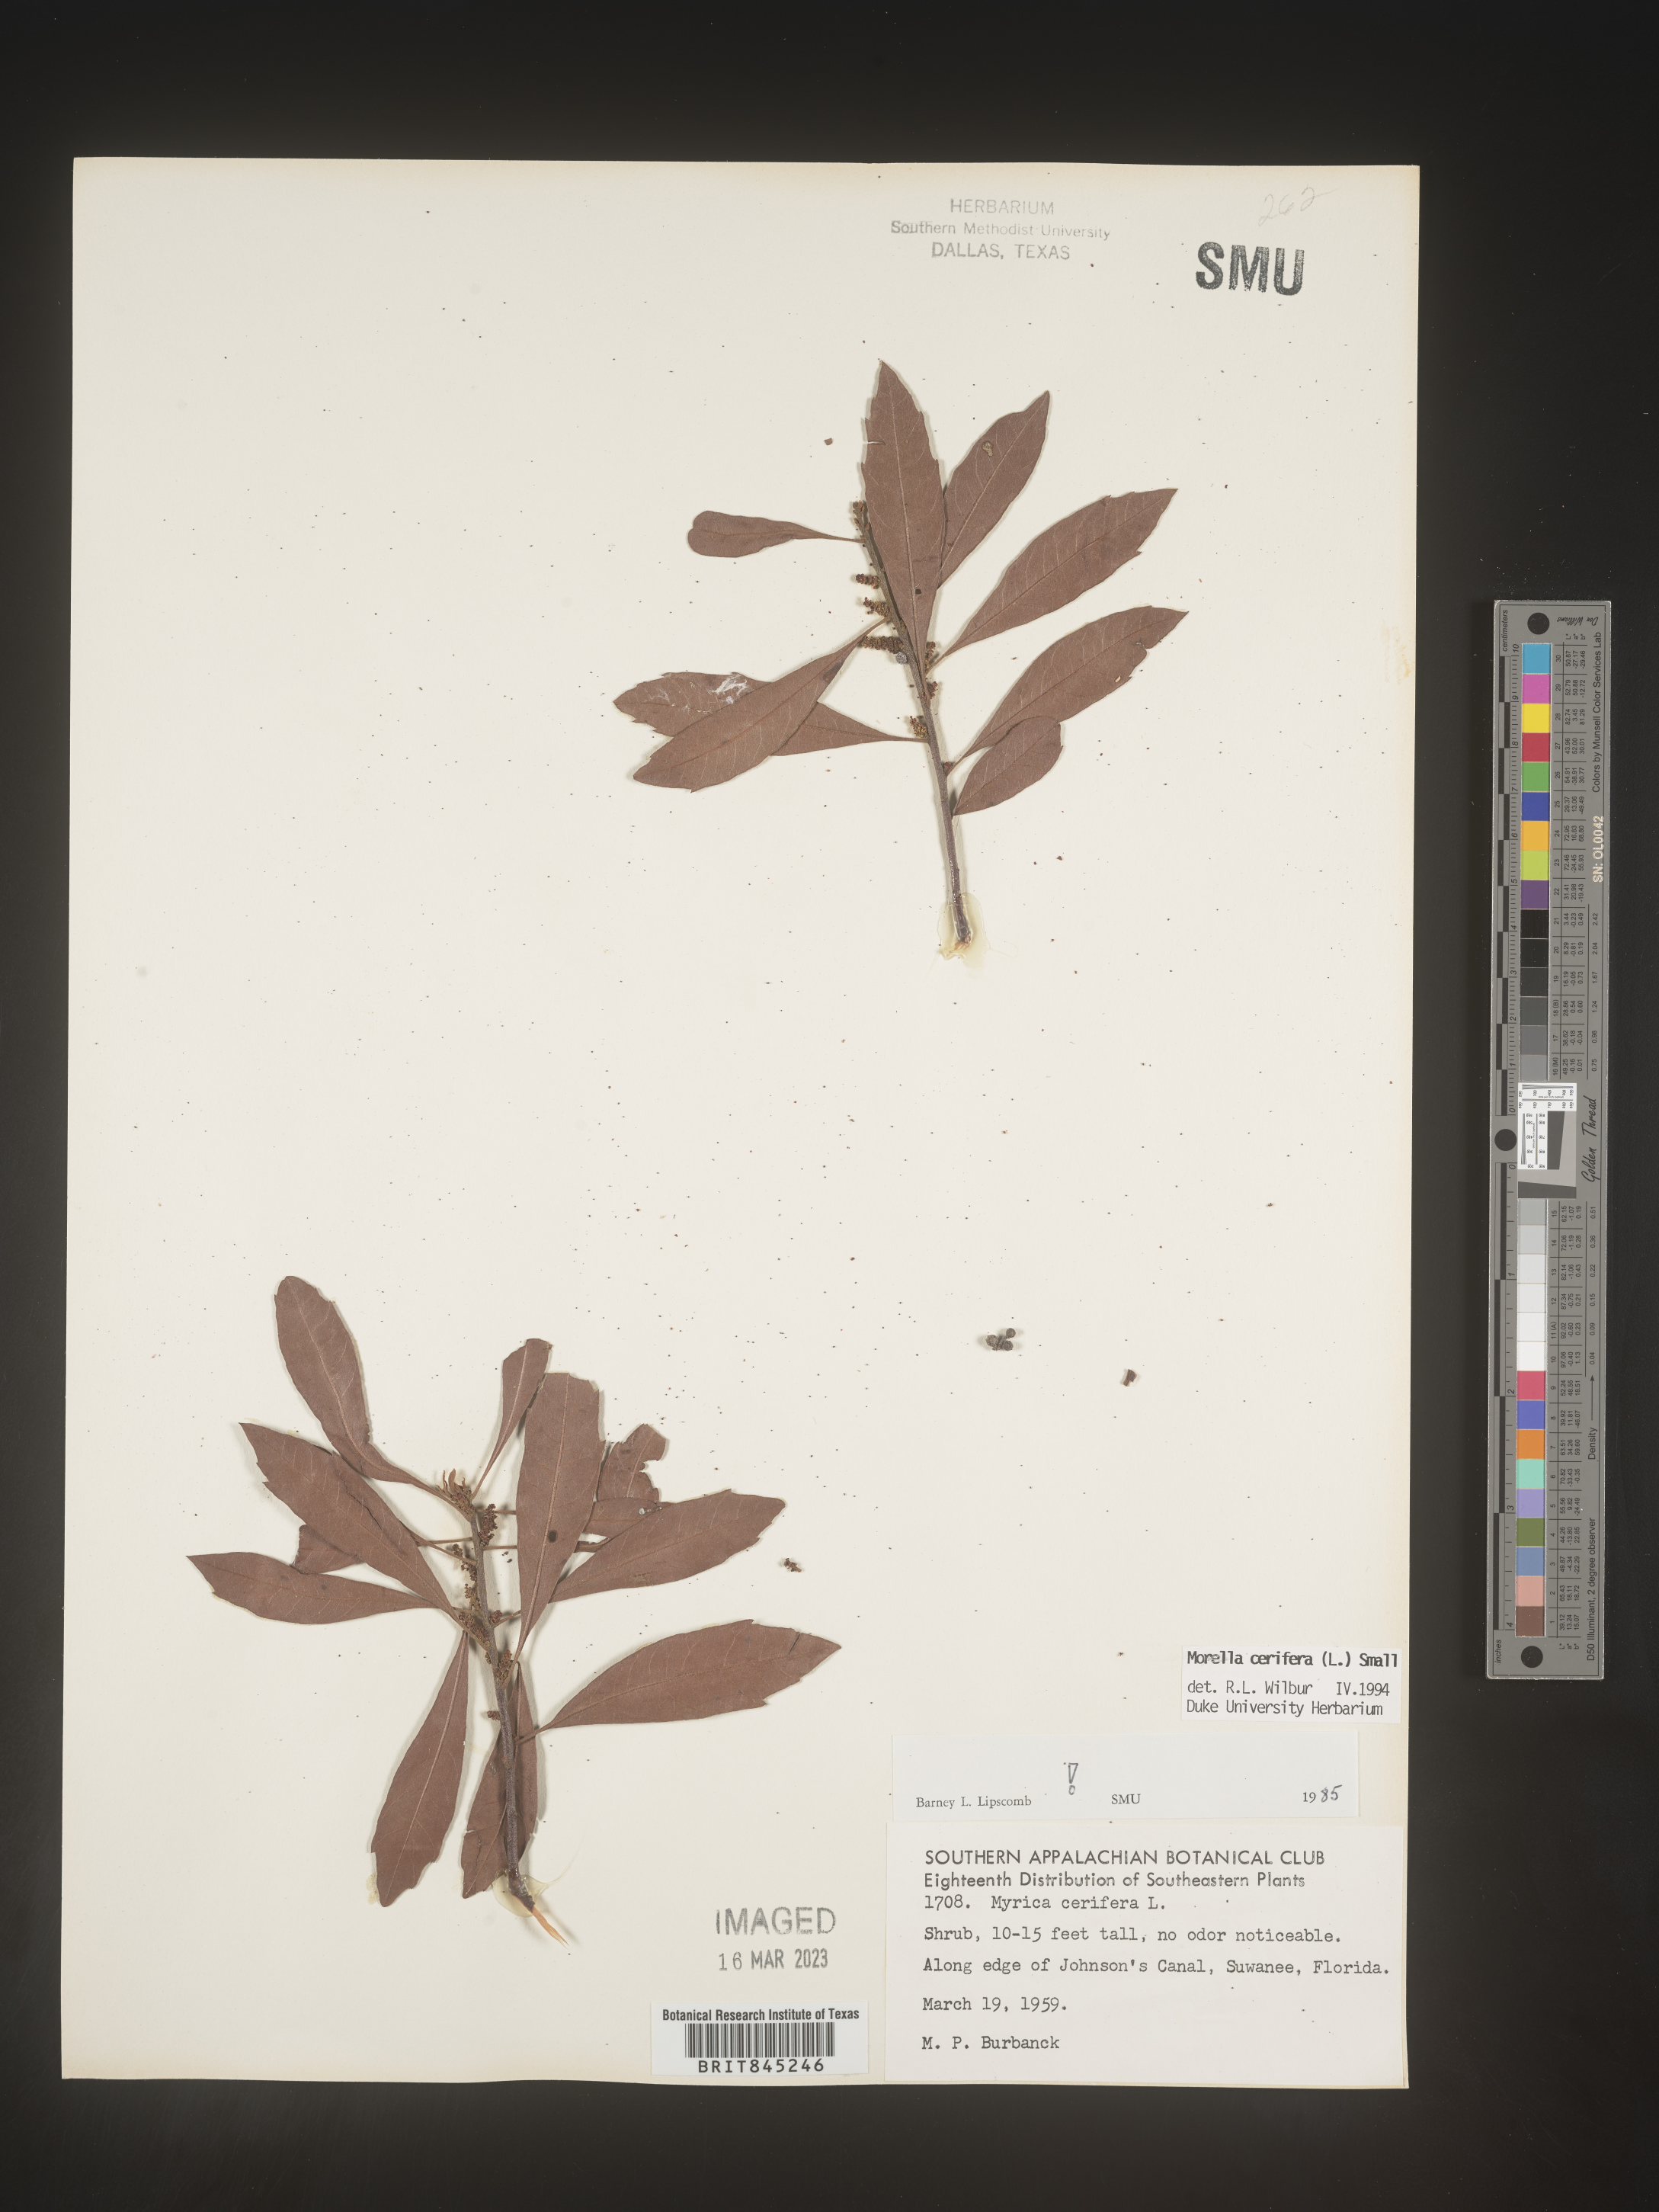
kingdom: Plantae
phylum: Tracheophyta
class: Magnoliopsida
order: Fagales
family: Myricaceae
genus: Morella
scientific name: Morella cerifera
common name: Wax myrtle
